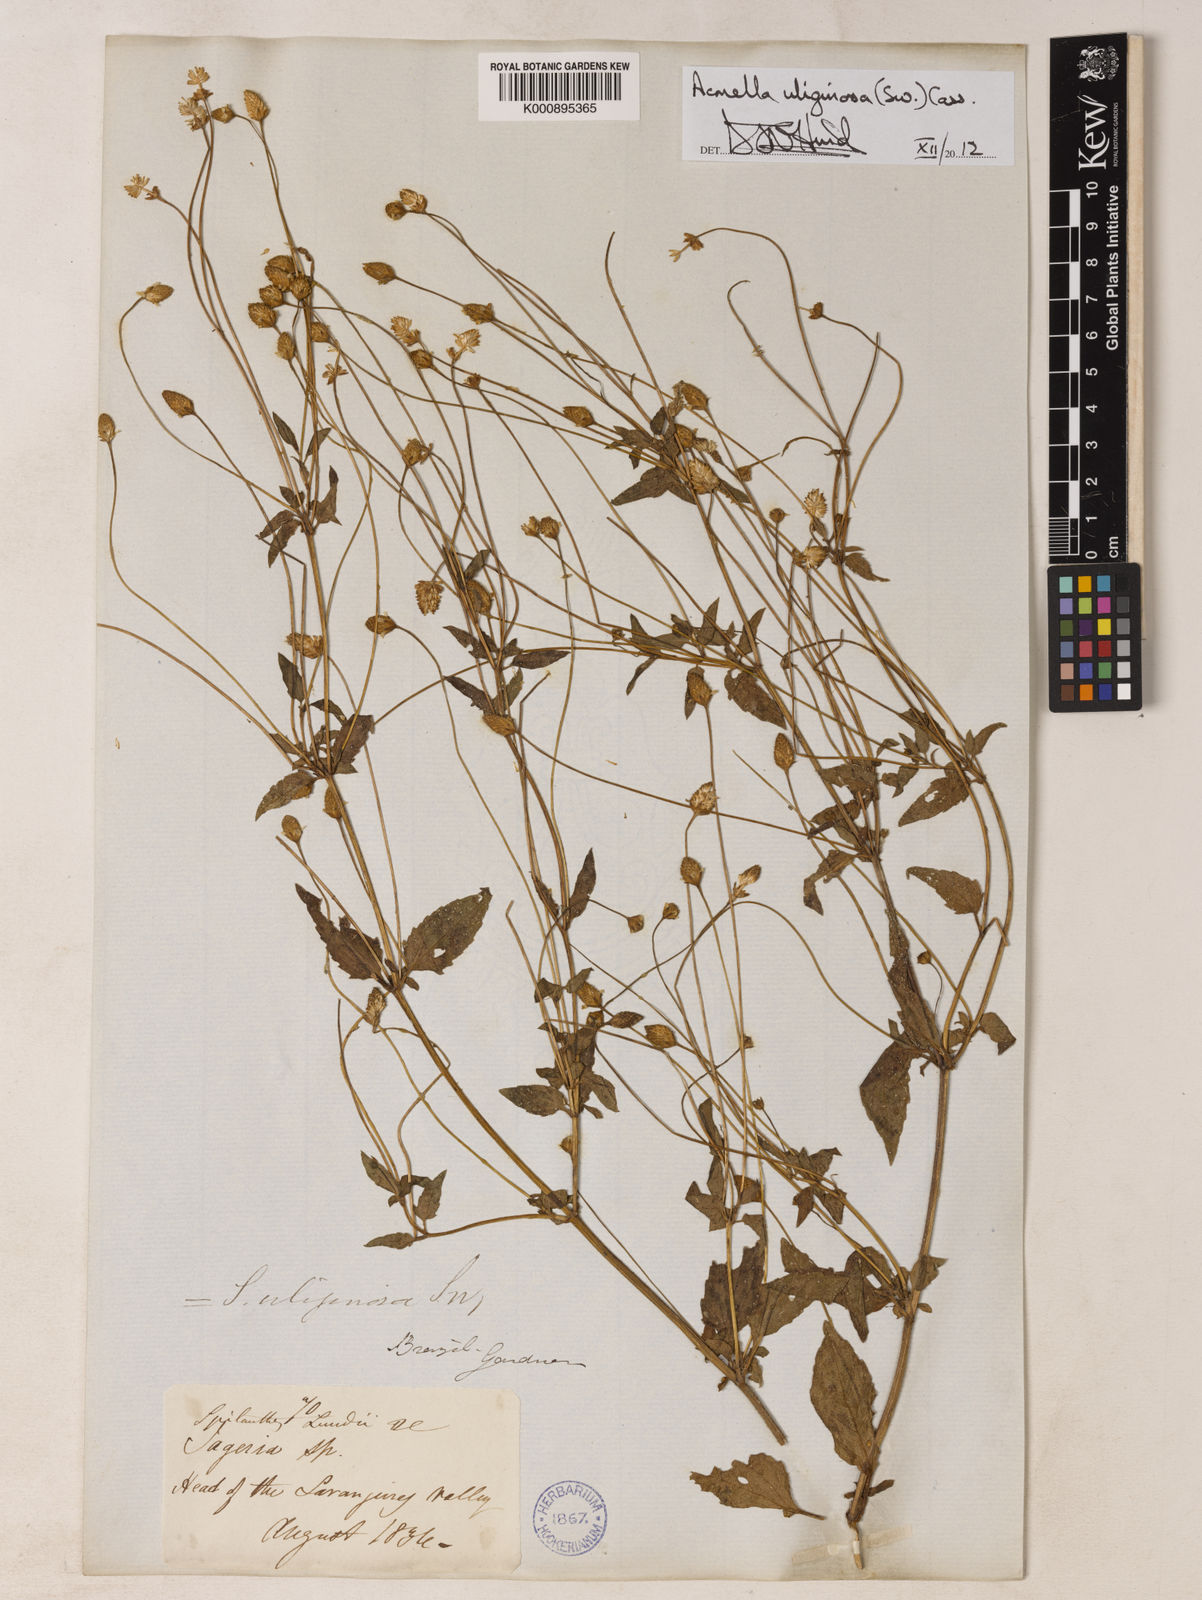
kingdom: Plantae
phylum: Tracheophyta
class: Magnoliopsida
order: Asterales
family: Asteraceae
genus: Acmella
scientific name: Acmella uliginosa
